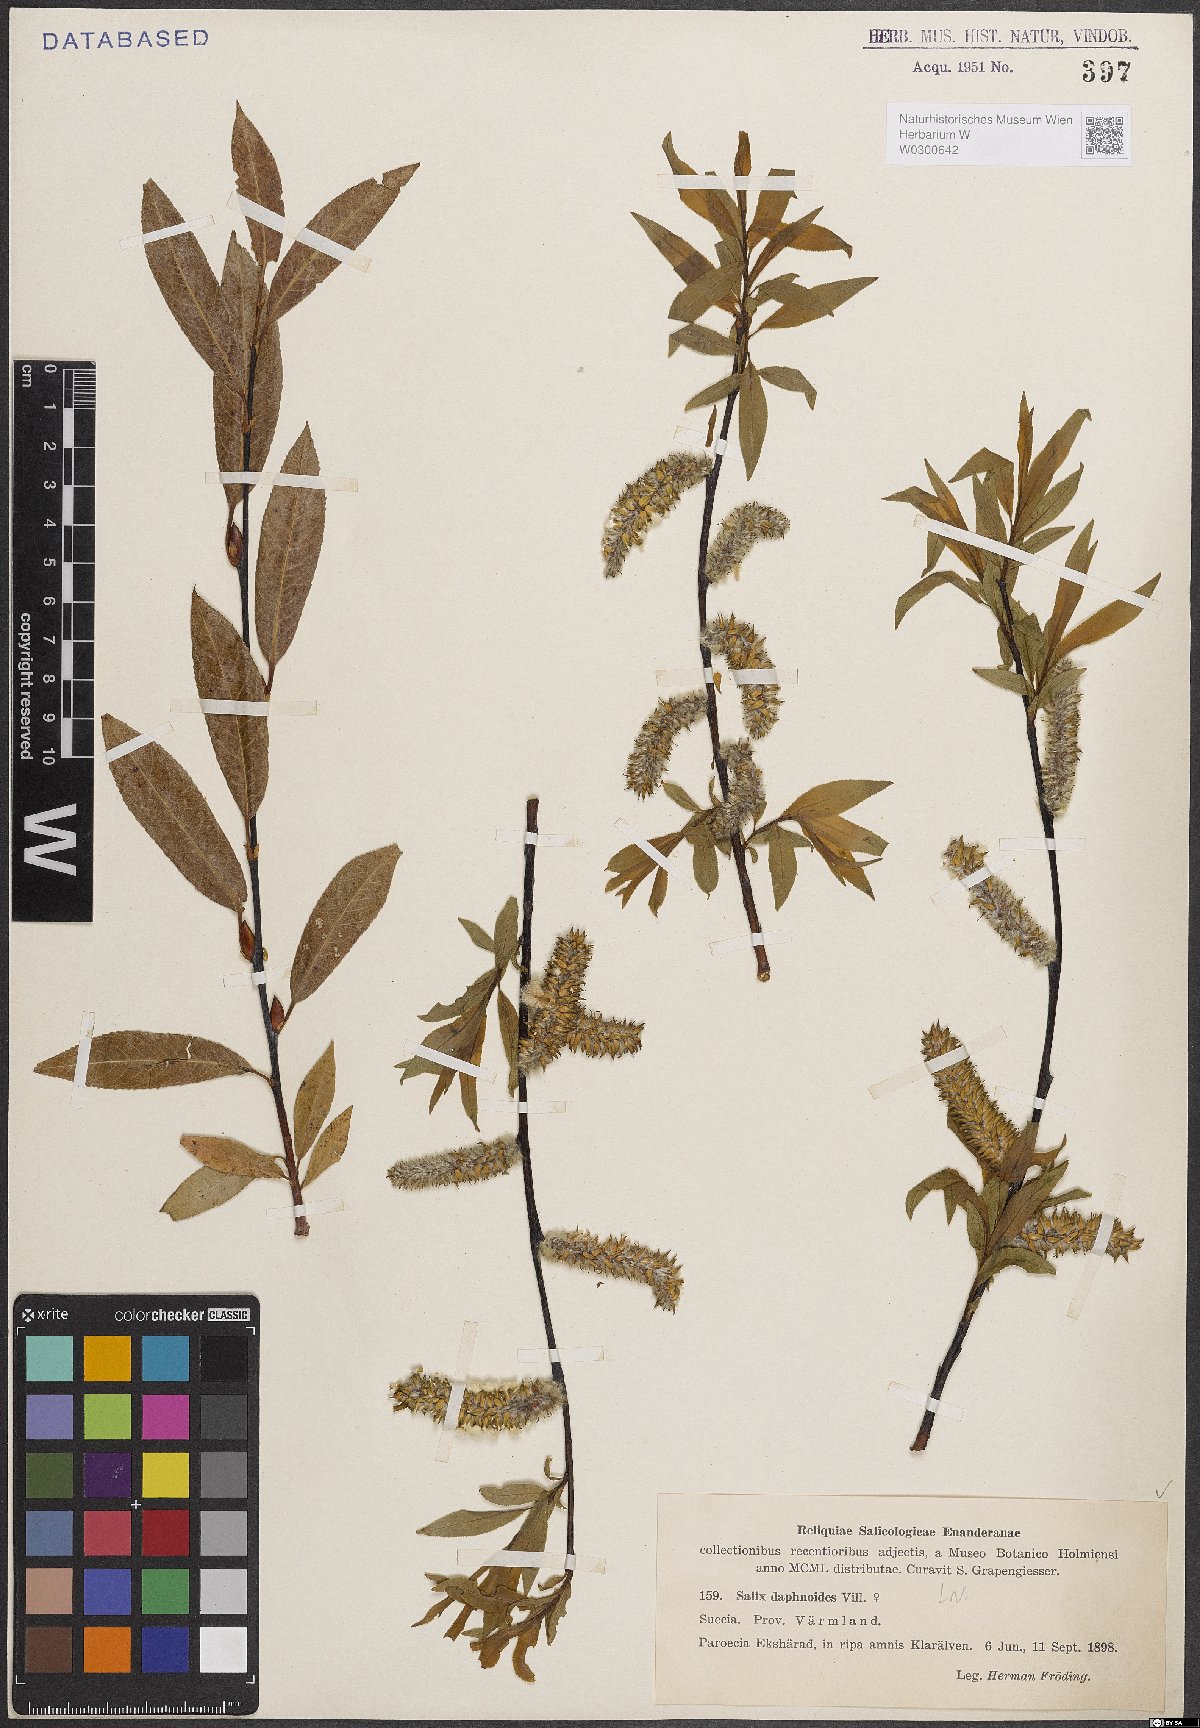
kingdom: Plantae
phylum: Tracheophyta
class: Magnoliopsida
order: Malpighiales
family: Salicaceae
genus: Salix
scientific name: Salix daphnoides
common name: European violet-willow
